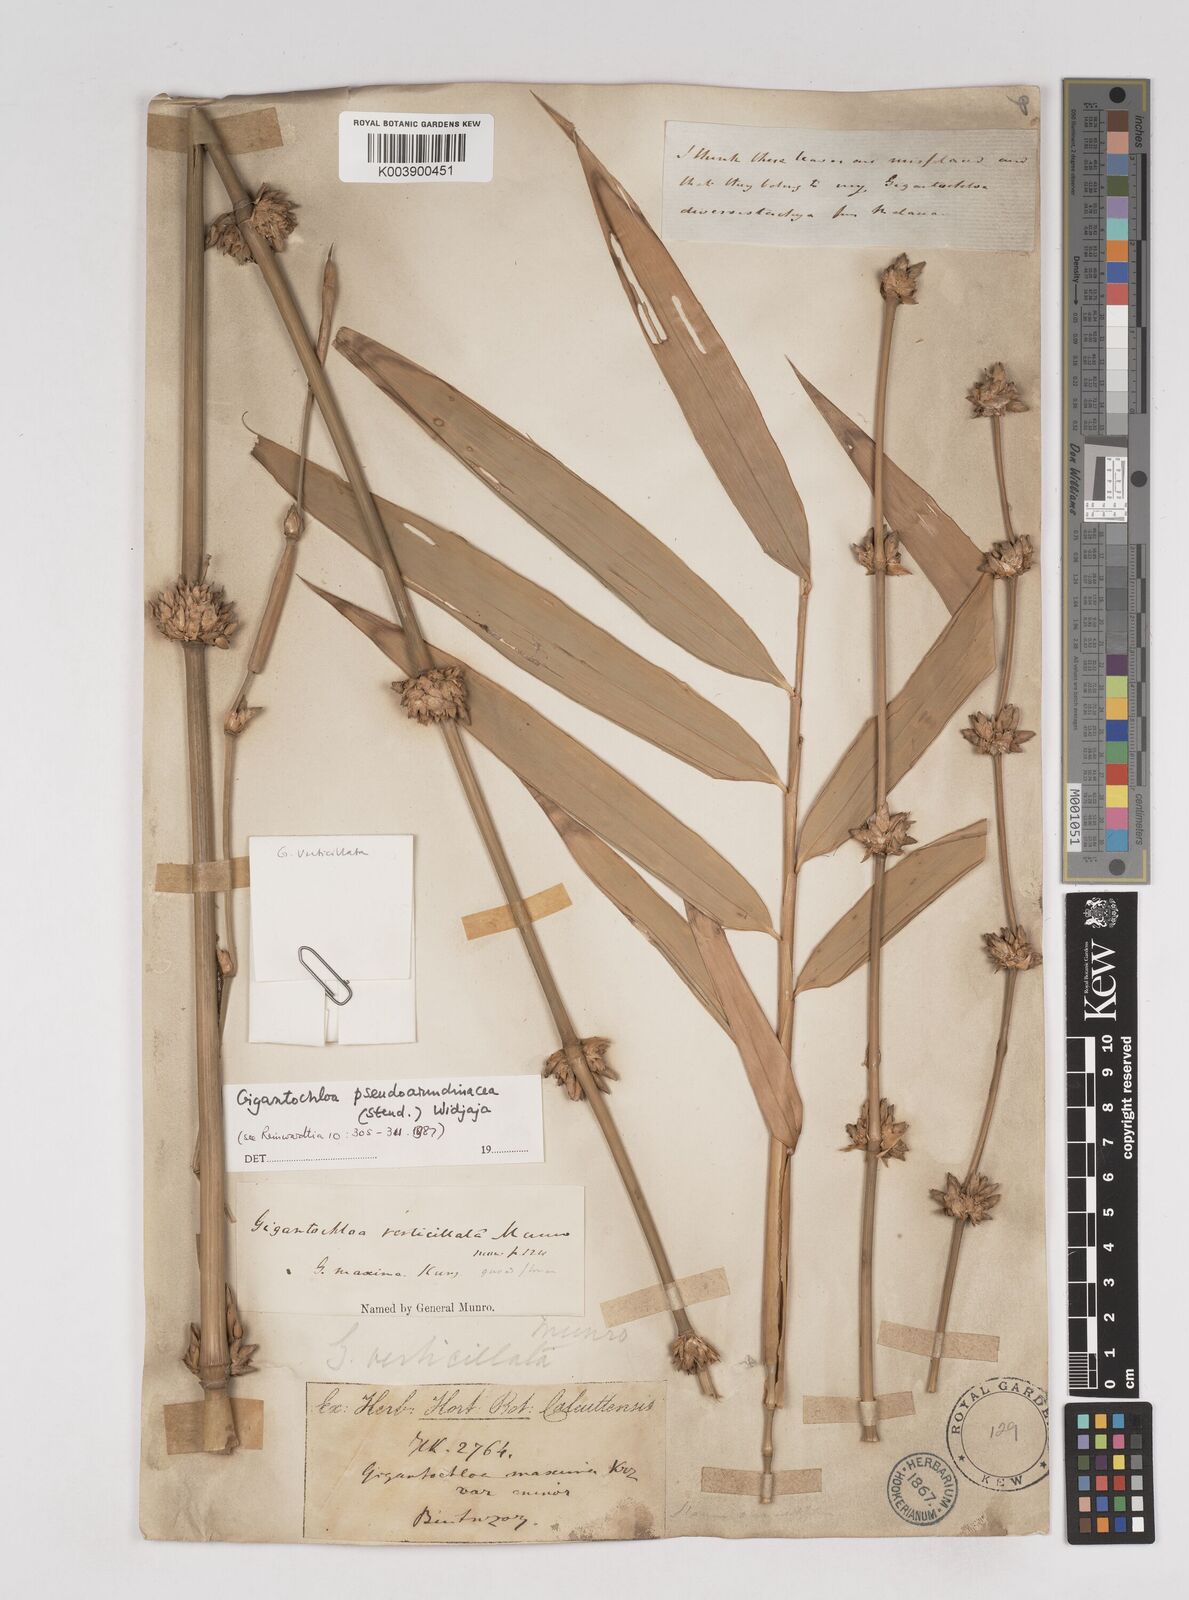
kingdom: Plantae
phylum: Tracheophyta
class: Liliopsida
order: Poales
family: Poaceae
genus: Gigantochloa
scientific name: Gigantochloa verticillata
